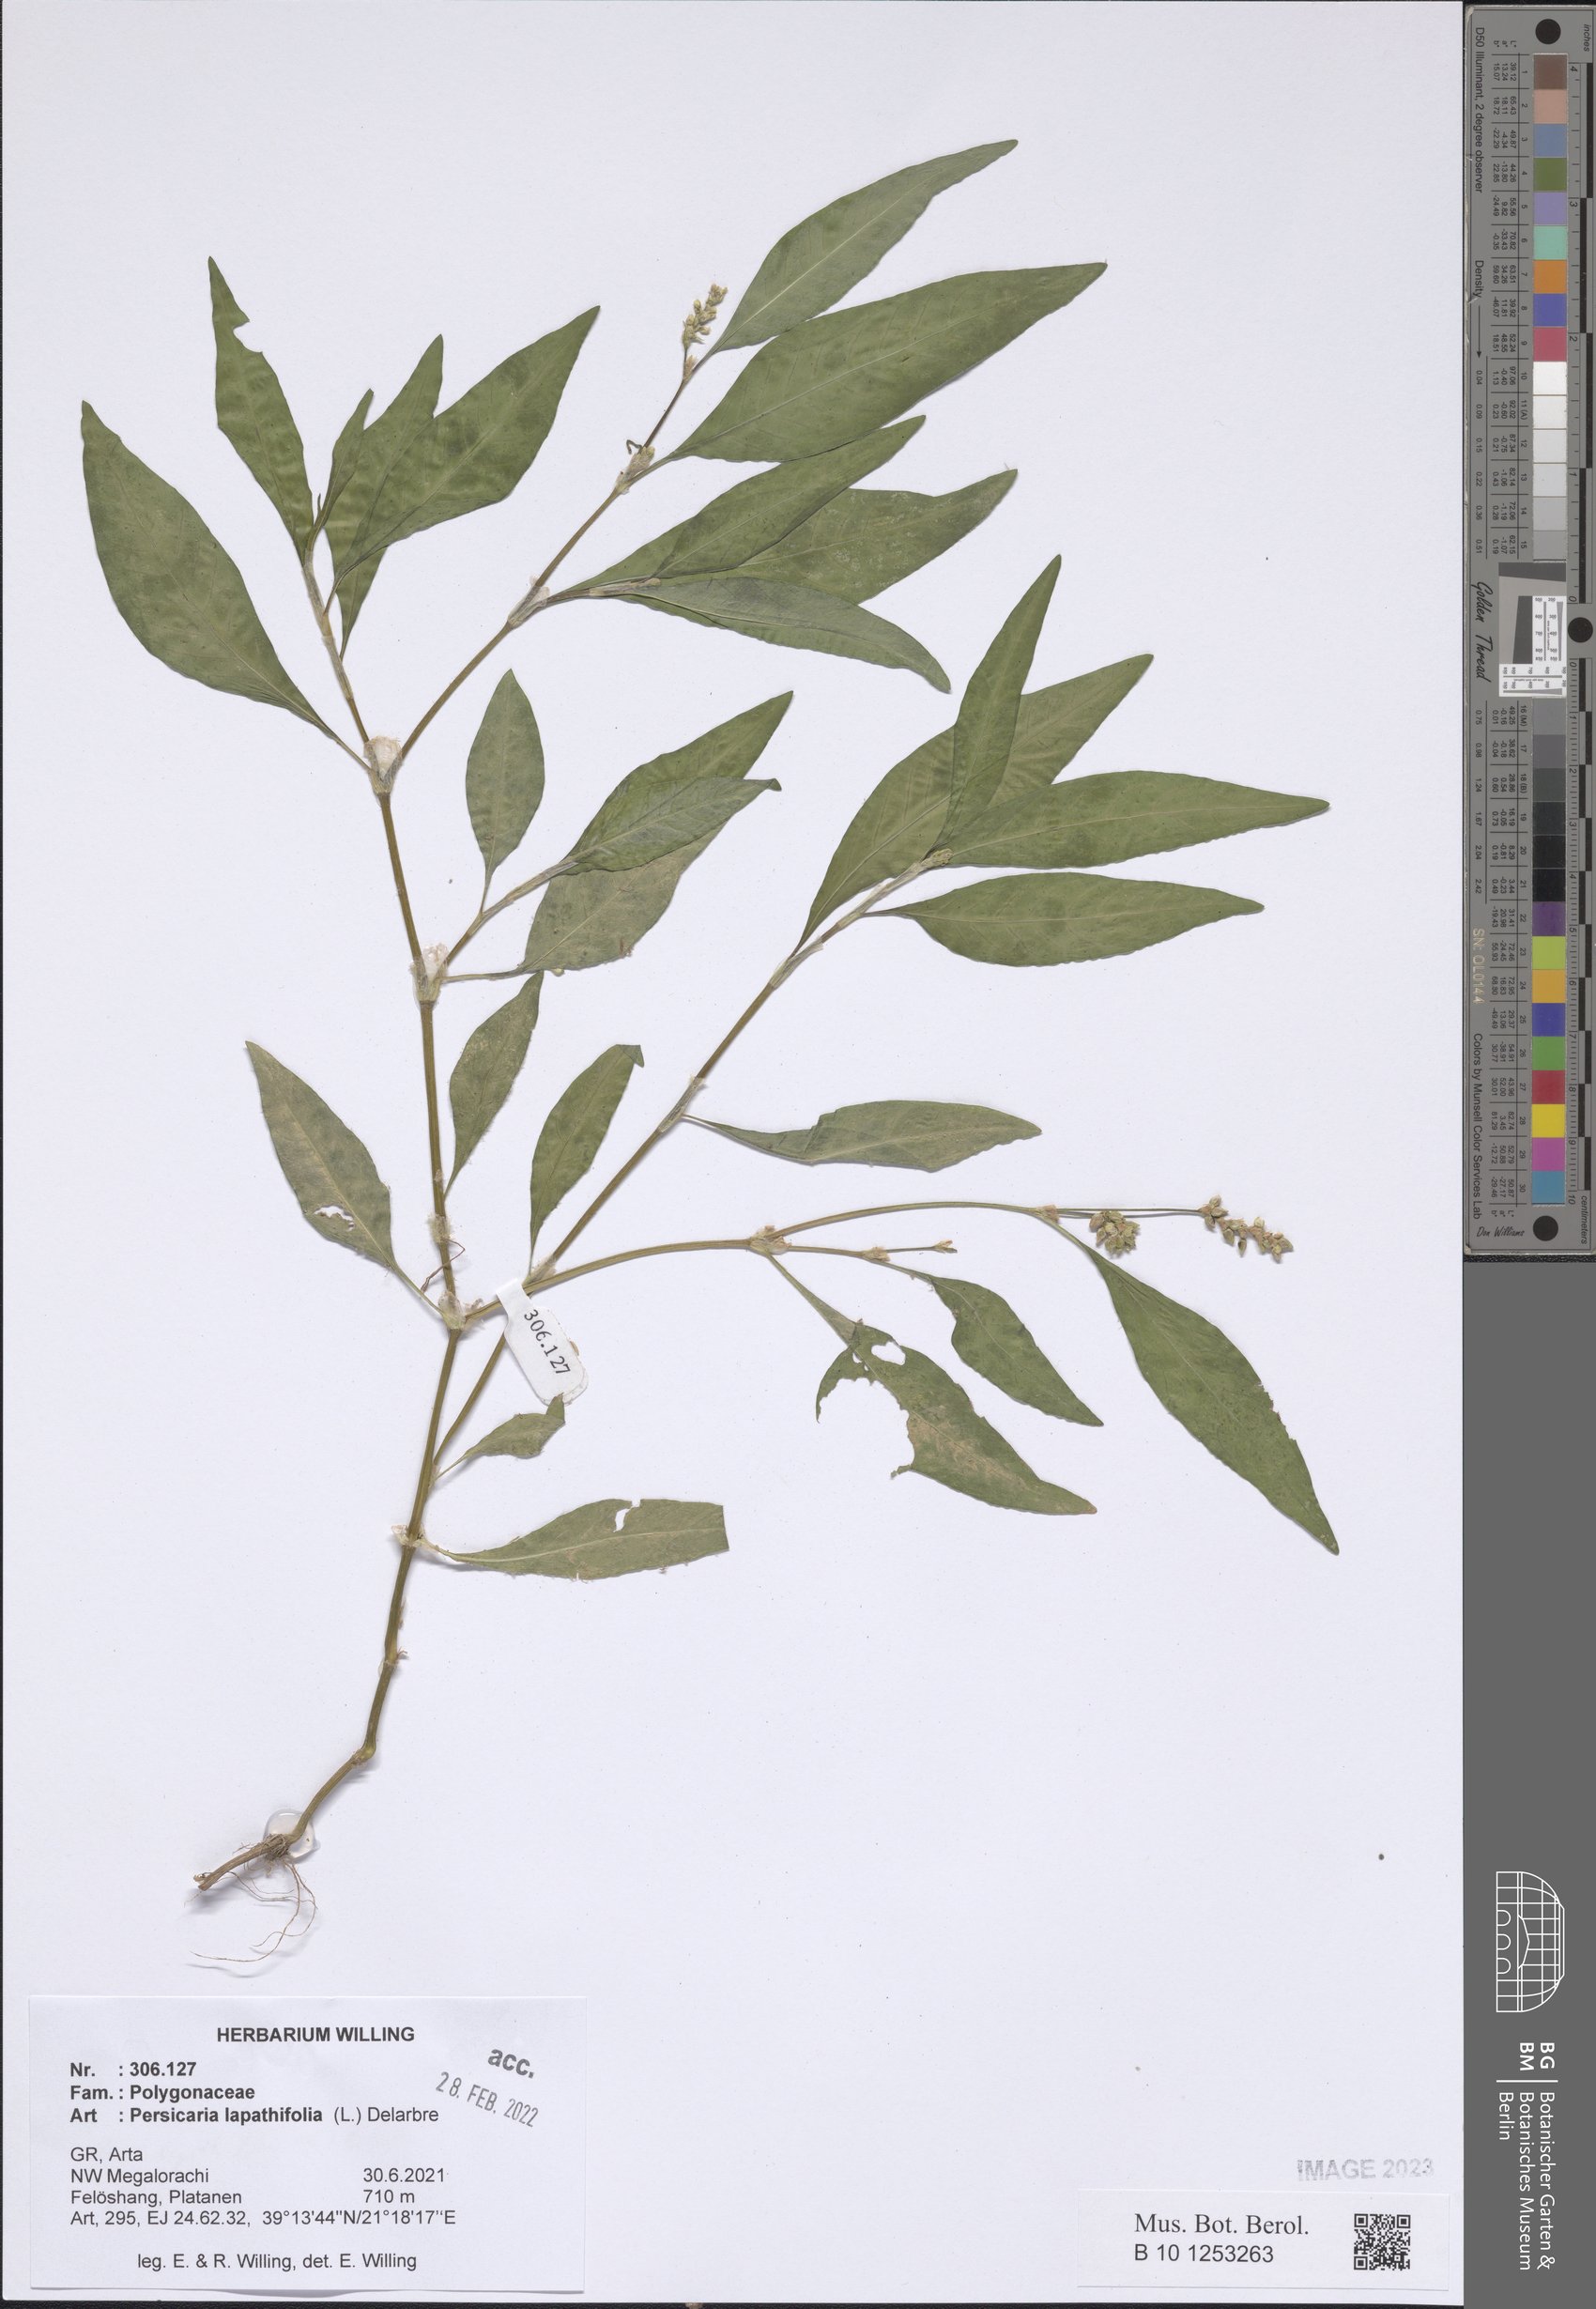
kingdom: Plantae
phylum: Tracheophyta
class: Magnoliopsida
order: Caryophyllales
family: Polygonaceae
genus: Persicaria
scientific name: Persicaria lapathifolia
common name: Curlytop knotweed
